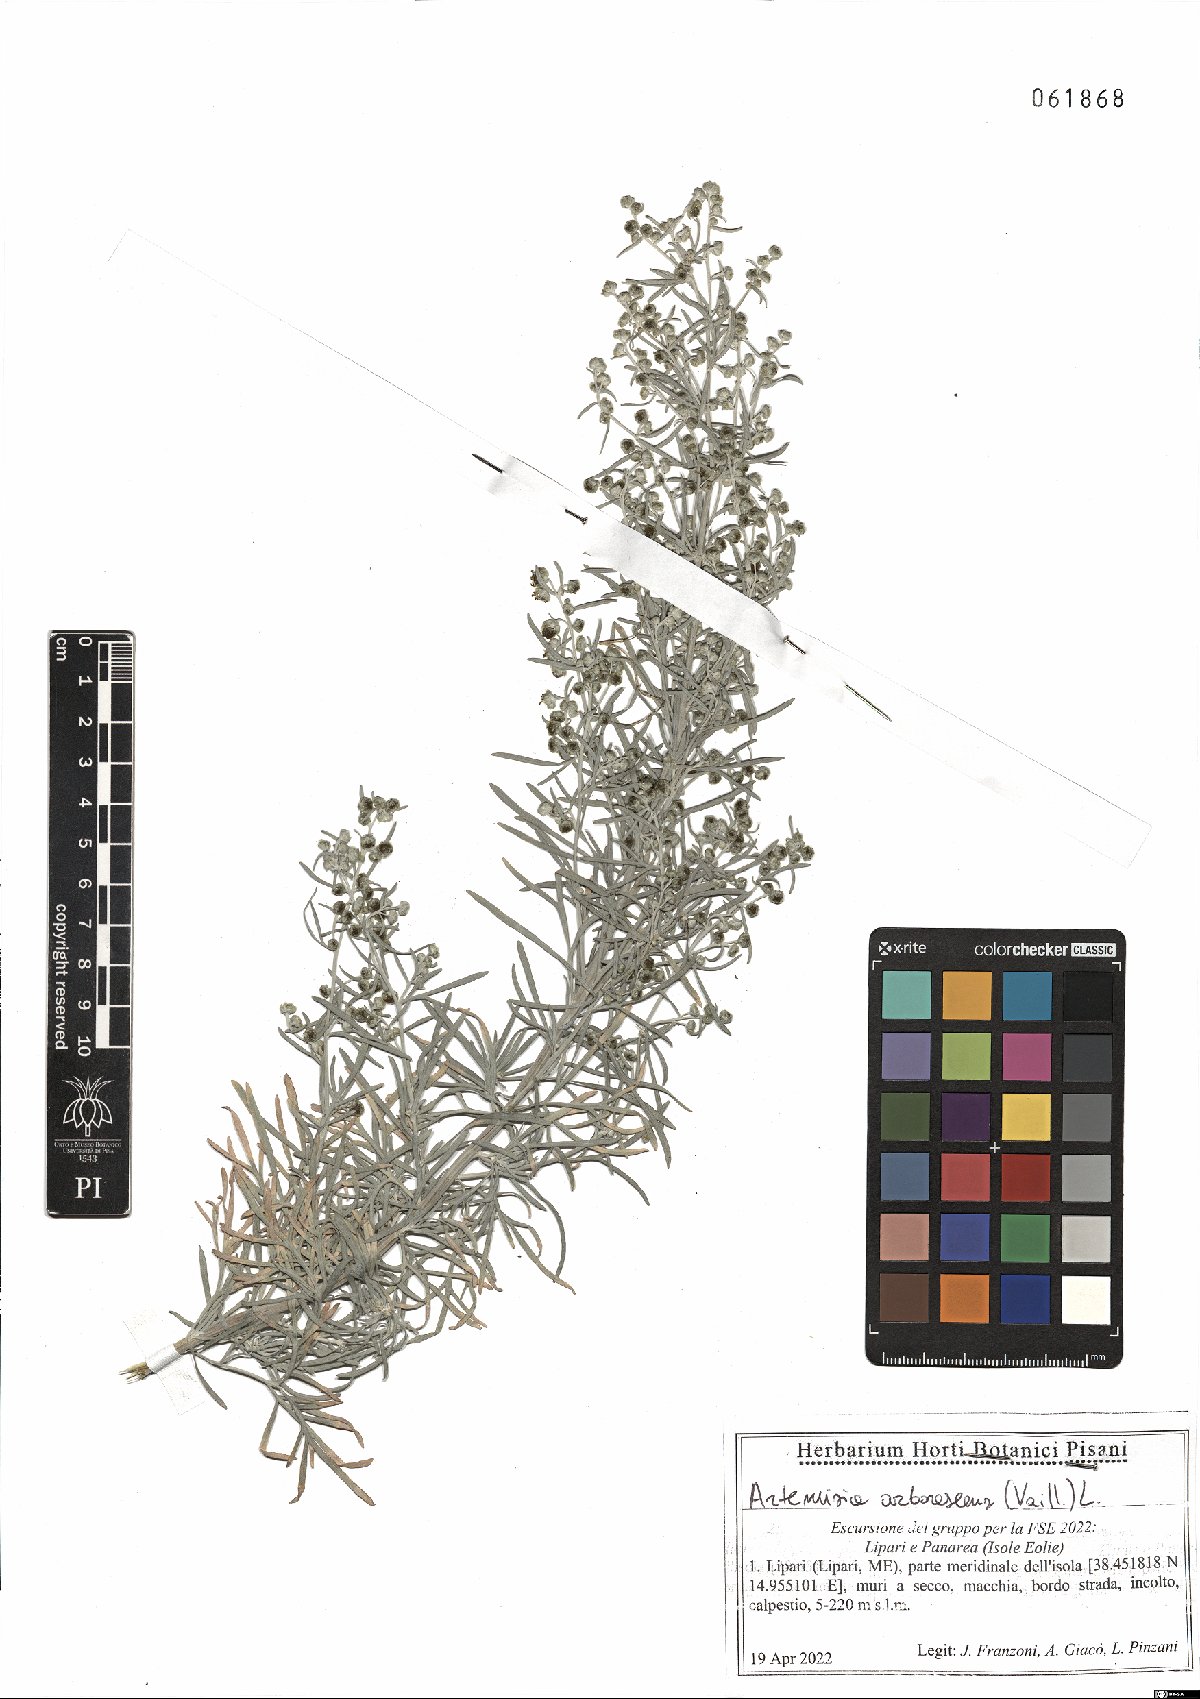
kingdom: Plantae
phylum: Tracheophyta
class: Magnoliopsida
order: Asterales
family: Asteraceae
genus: Artemisia
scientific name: Artemisia arborescens
